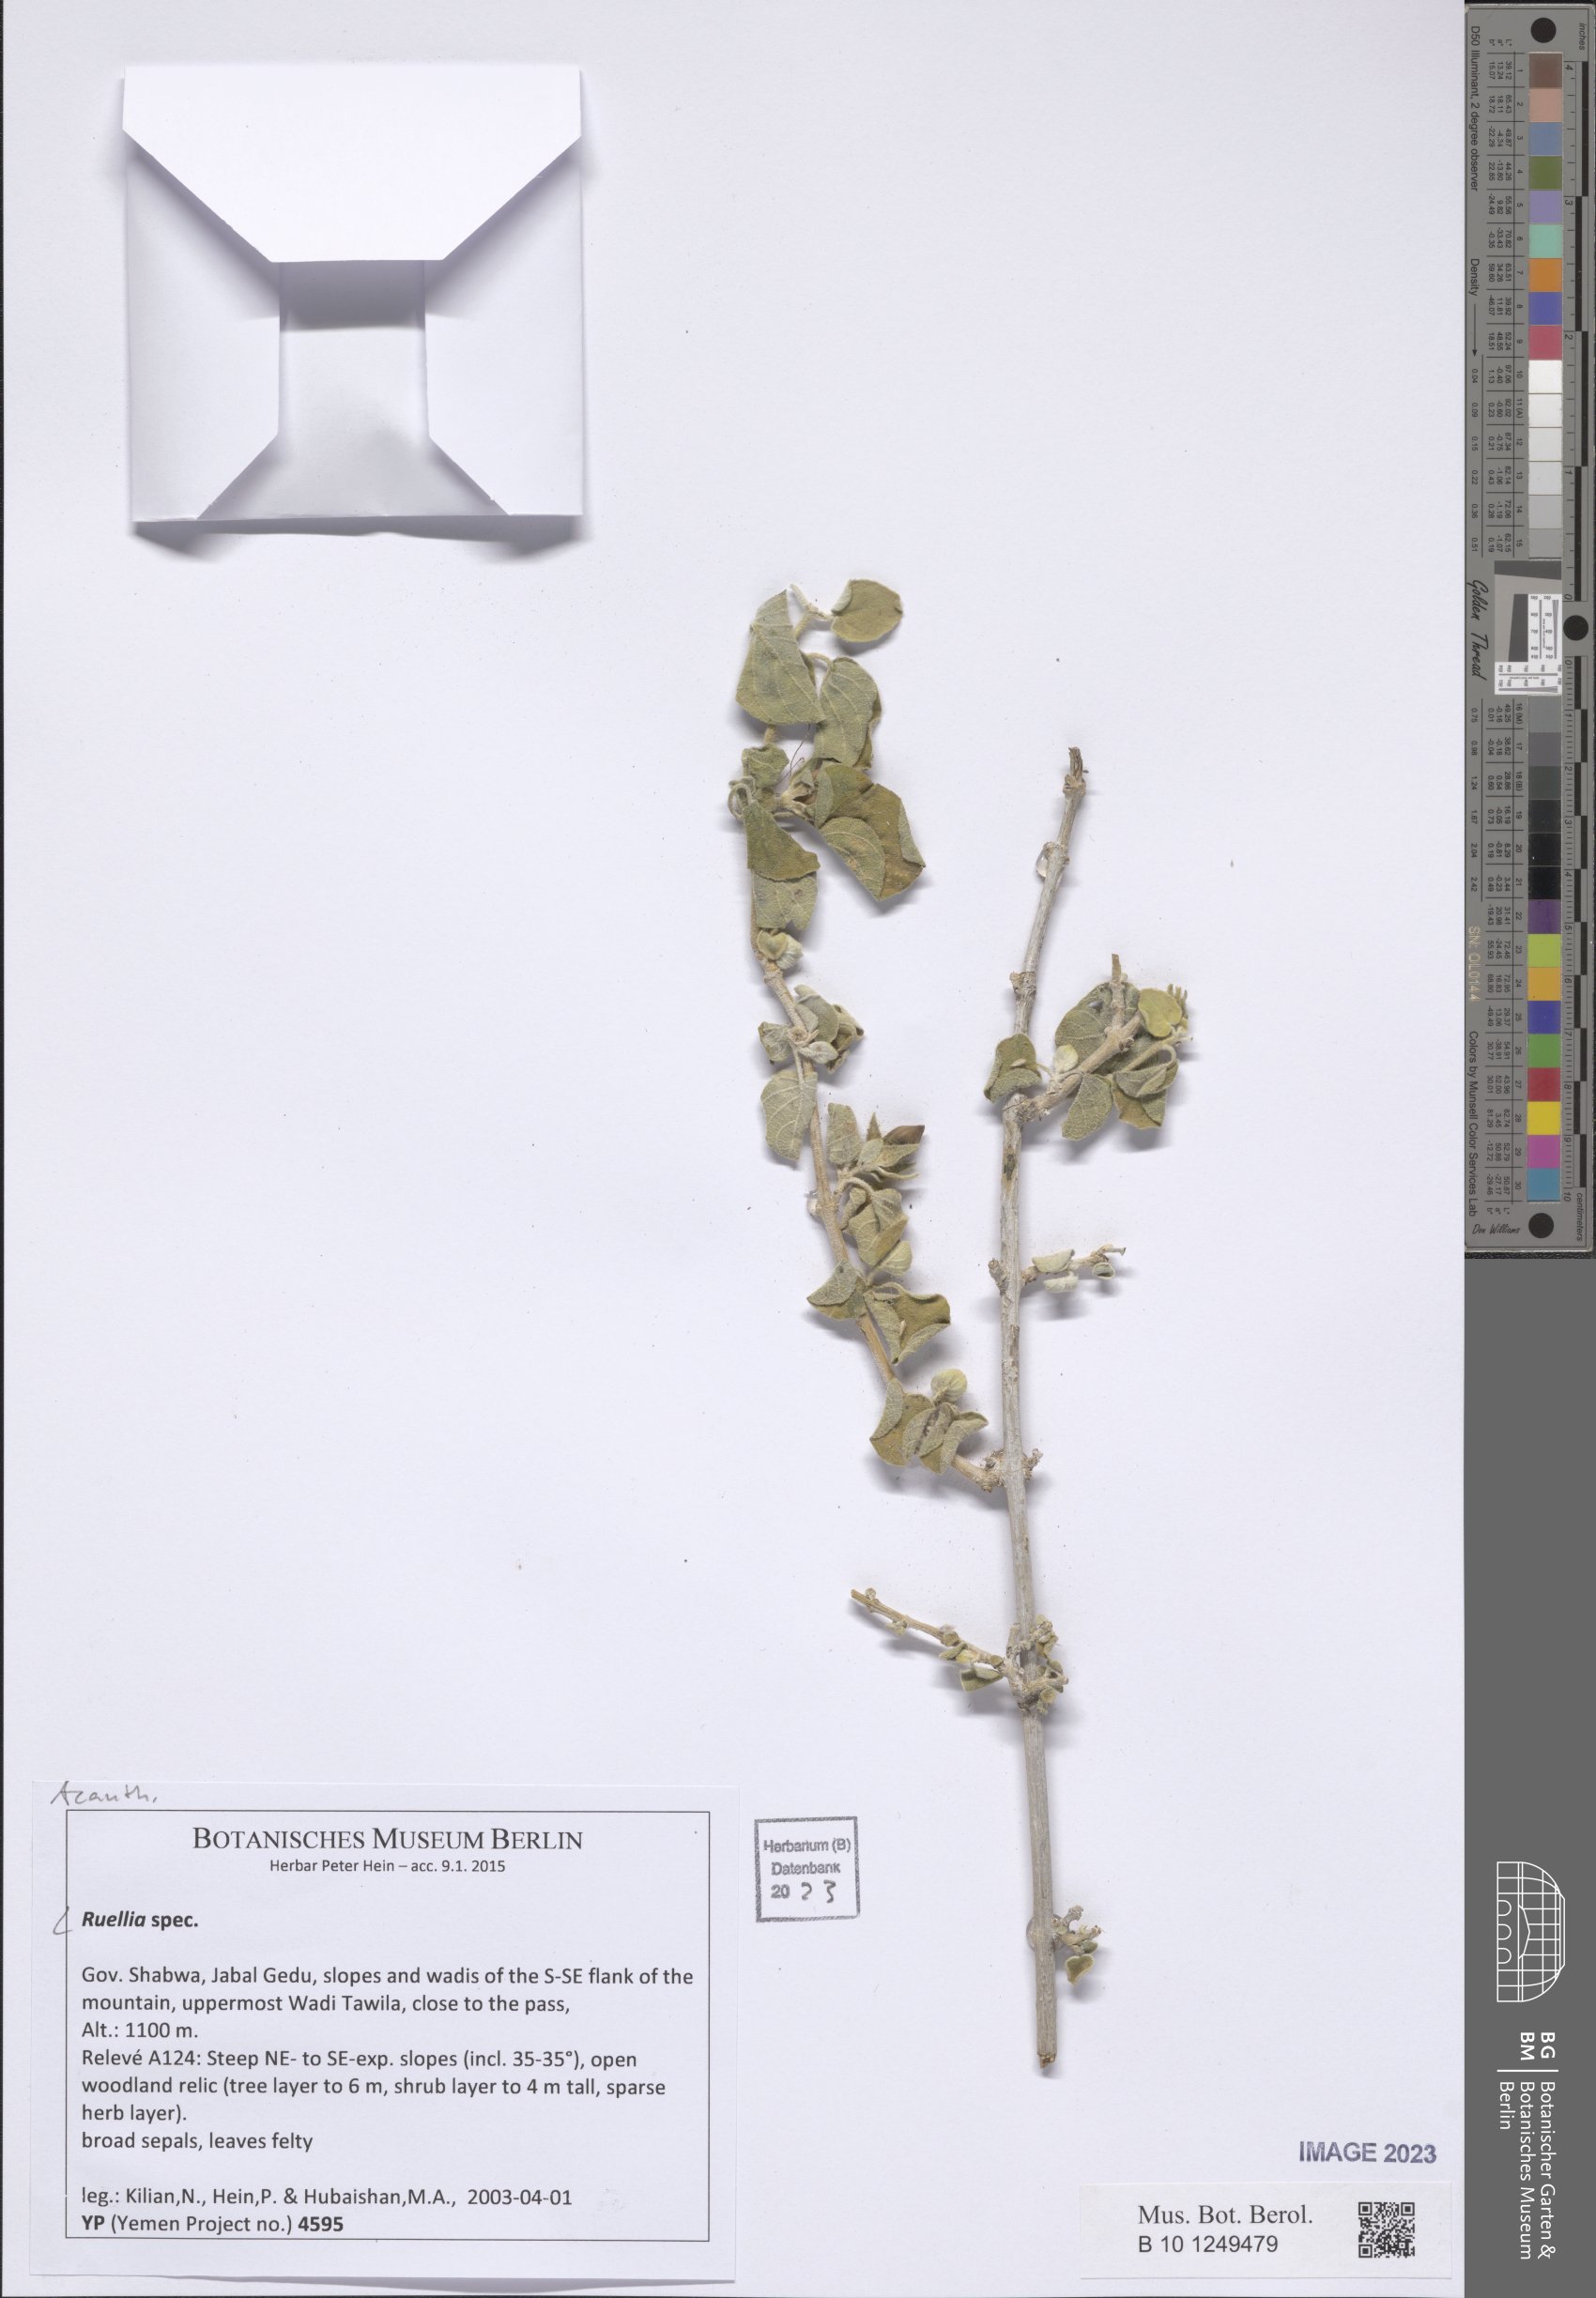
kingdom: Plantae
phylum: Tracheophyta
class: Magnoliopsida
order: Lamiales
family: Acanthaceae
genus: Ruellia
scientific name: Ruellia
